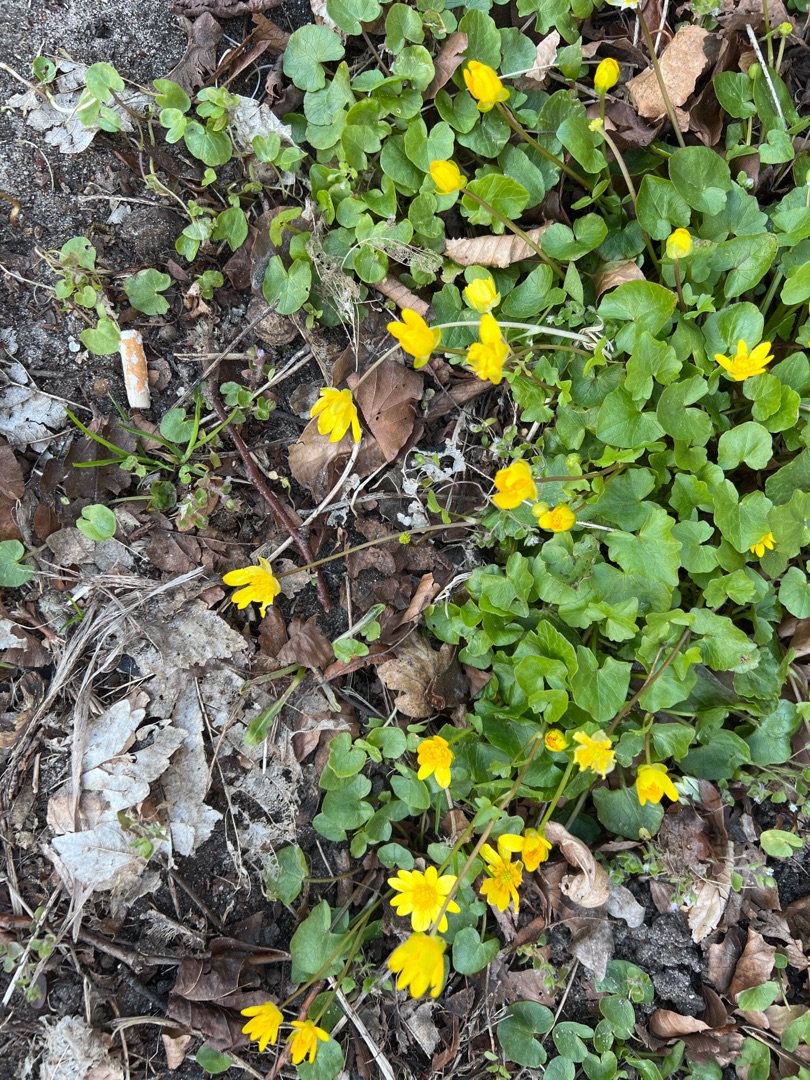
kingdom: Plantae
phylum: Tracheophyta
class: Magnoliopsida
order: Ranunculales
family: Ranunculaceae
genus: Ficaria
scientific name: Ficaria verna
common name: Vorterod
